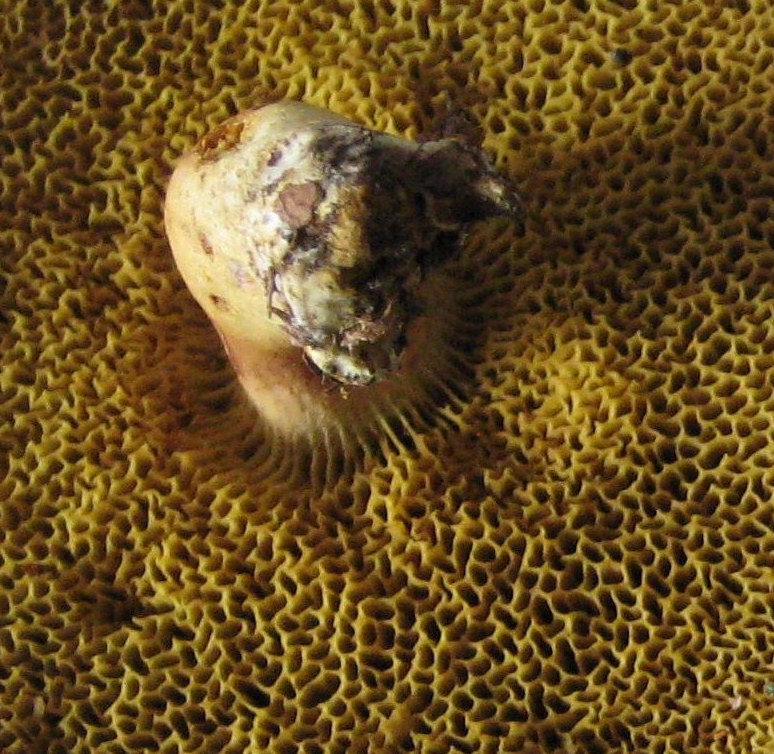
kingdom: Fungi
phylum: Basidiomycota
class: Agaricomycetes
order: Boletales
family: Boletaceae
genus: Xerocomus
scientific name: Xerocomus ferrugineus
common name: vaskeskinds-rørhat
